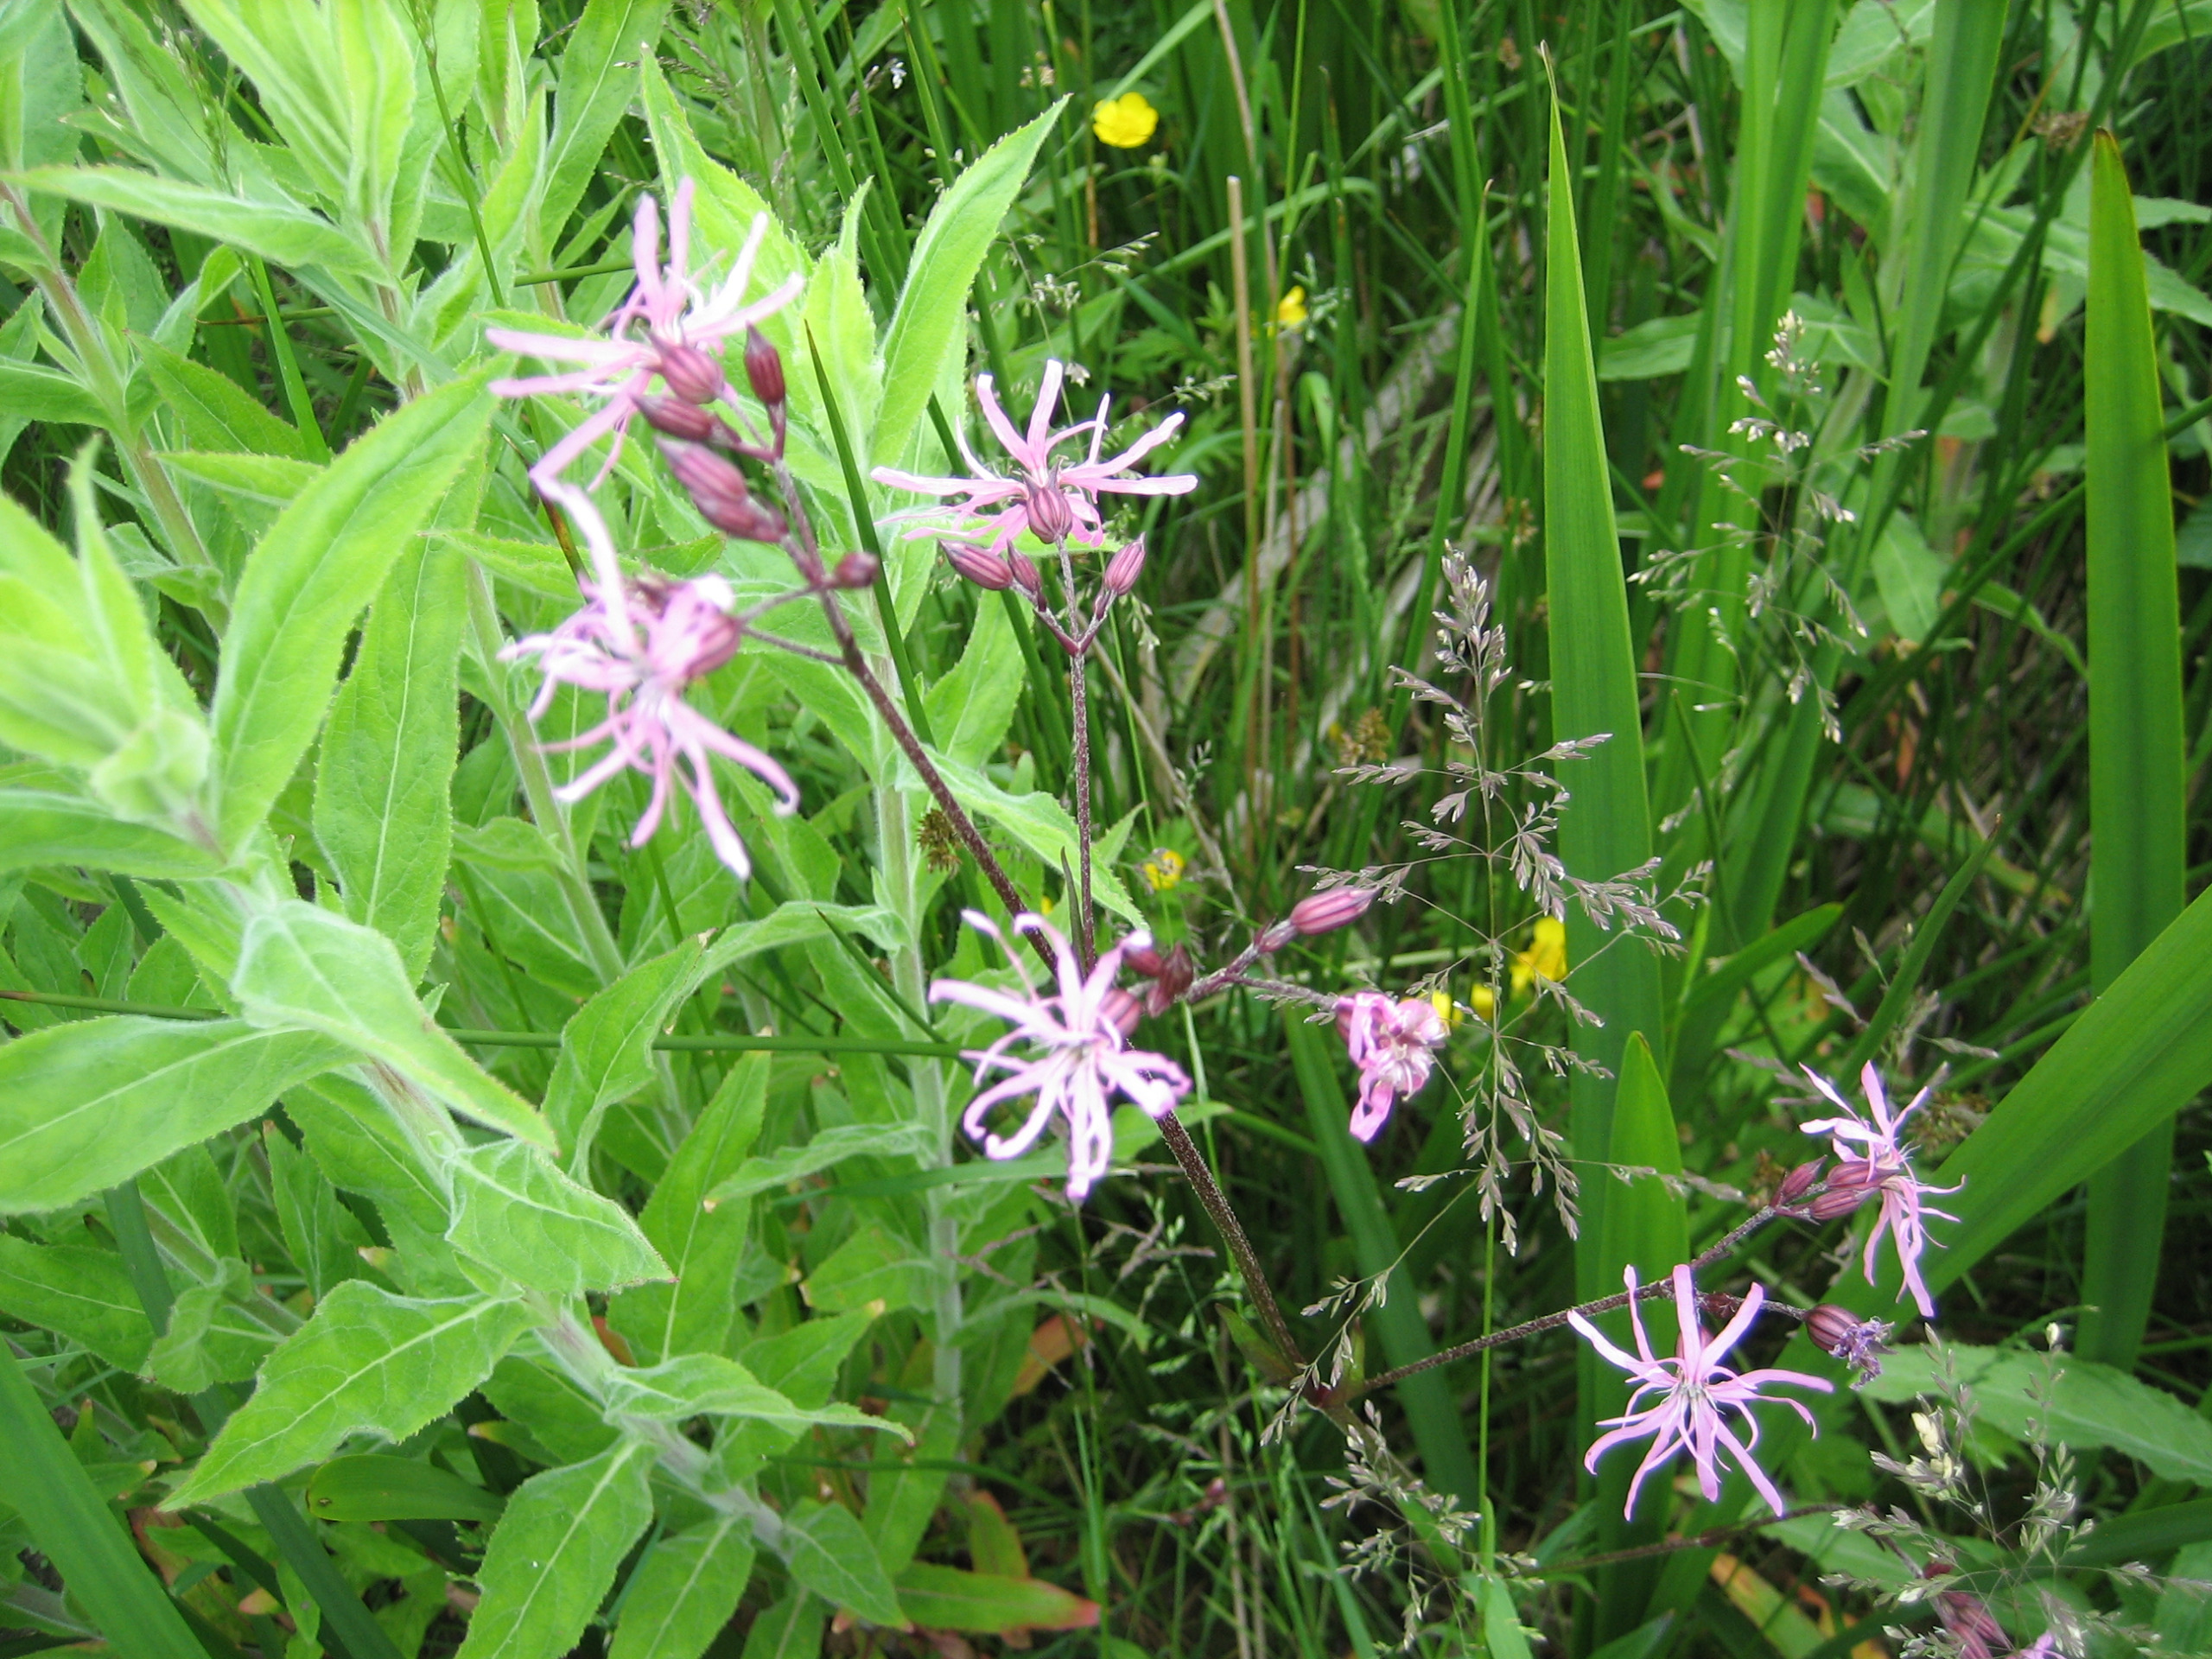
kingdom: Plantae
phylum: Tracheophyta
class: Magnoliopsida
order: Caryophyllales
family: Caryophyllaceae
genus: Silene
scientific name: Silene flos-cuculi
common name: Trævlekrone
